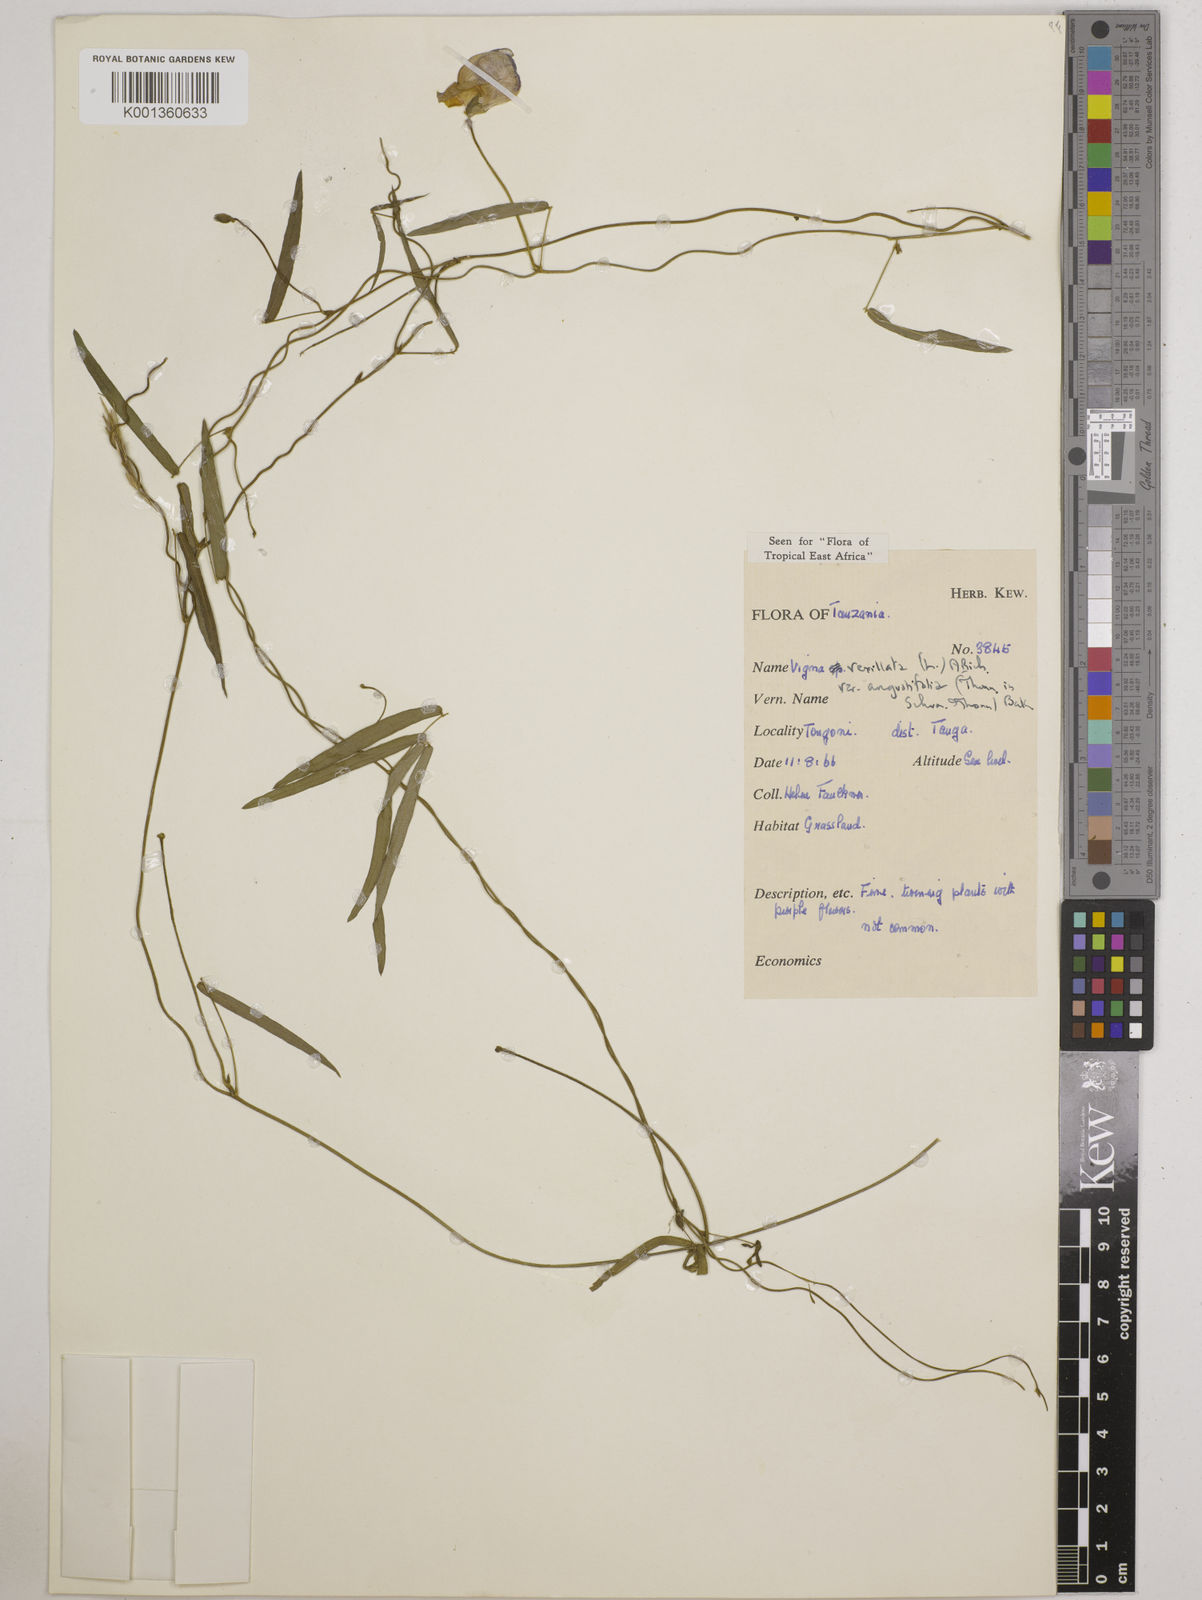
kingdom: Plantae
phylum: Tracheophyta
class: Magnoliopsida
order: Fabales
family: Fabaceae
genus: Vigna
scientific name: Vigna vexillata
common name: Zombi pea
